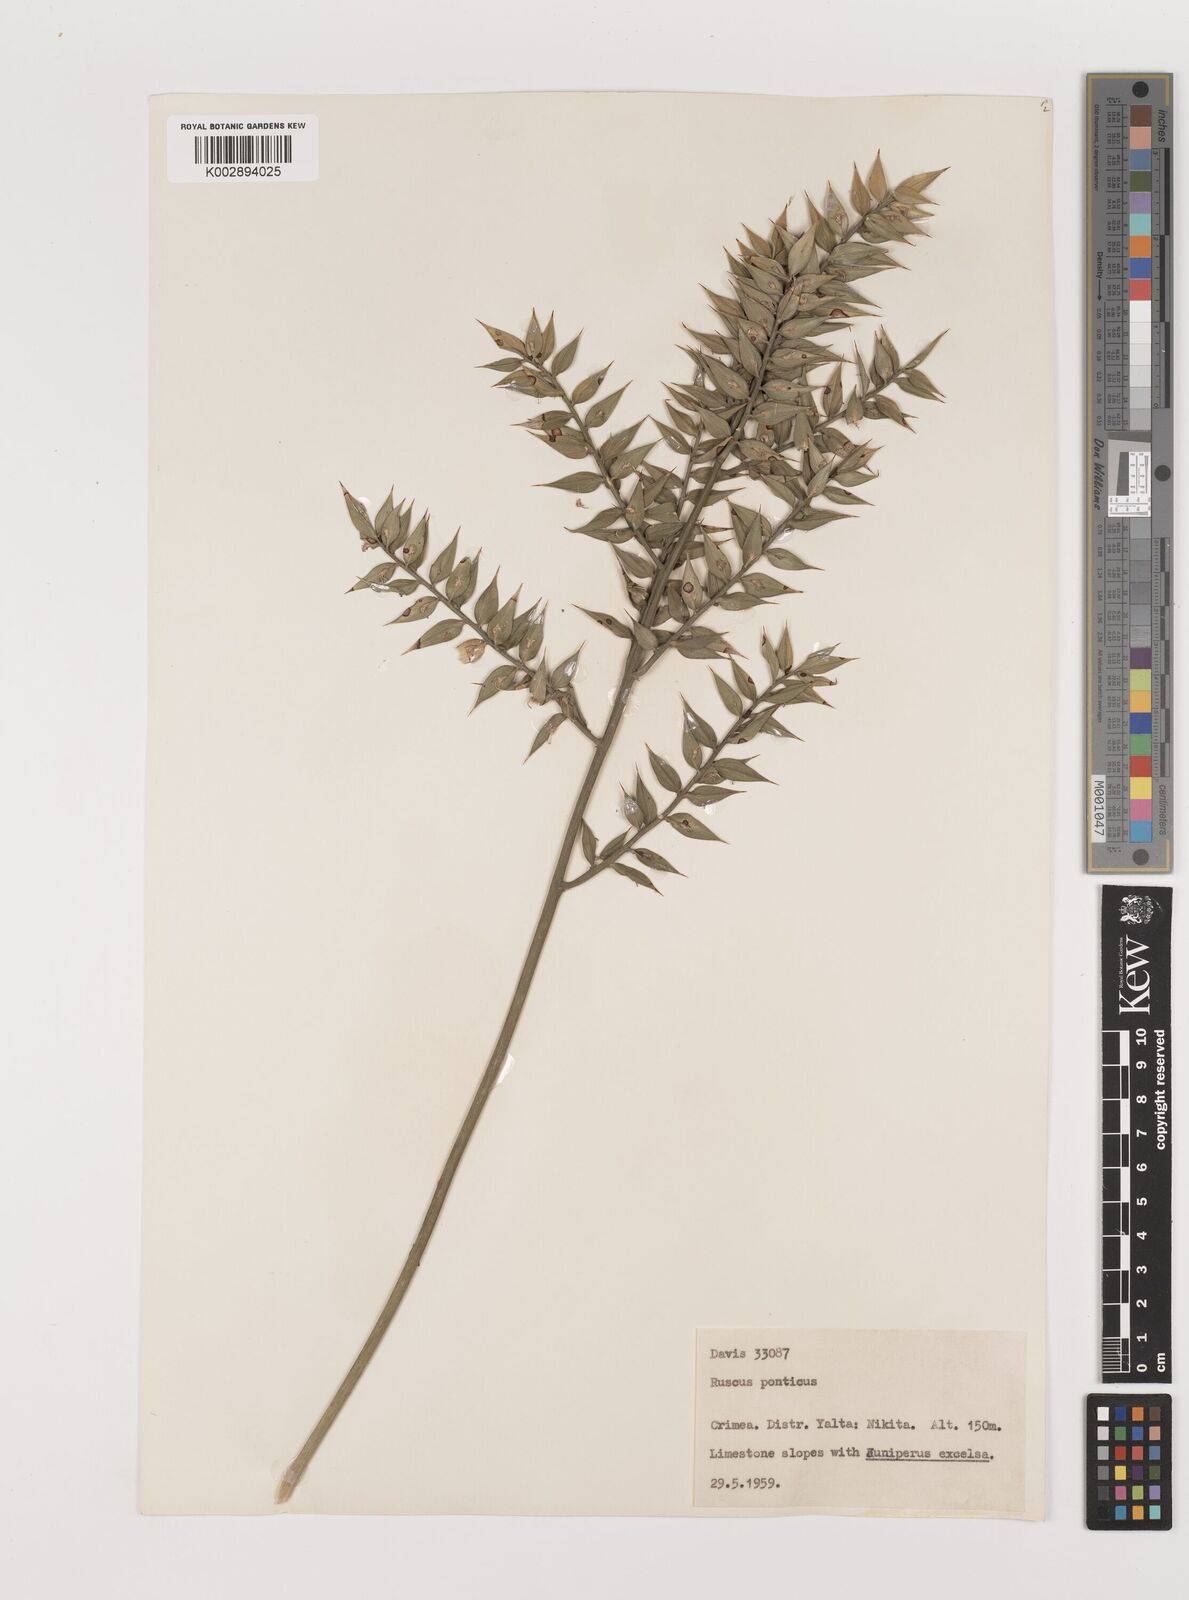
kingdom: Plantae
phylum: Tracheophyta
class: Liliopsida
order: Asparagales
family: Asparagaceae
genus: Ruscus
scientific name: Ruscus aculeatus
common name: Butcher's-broom
